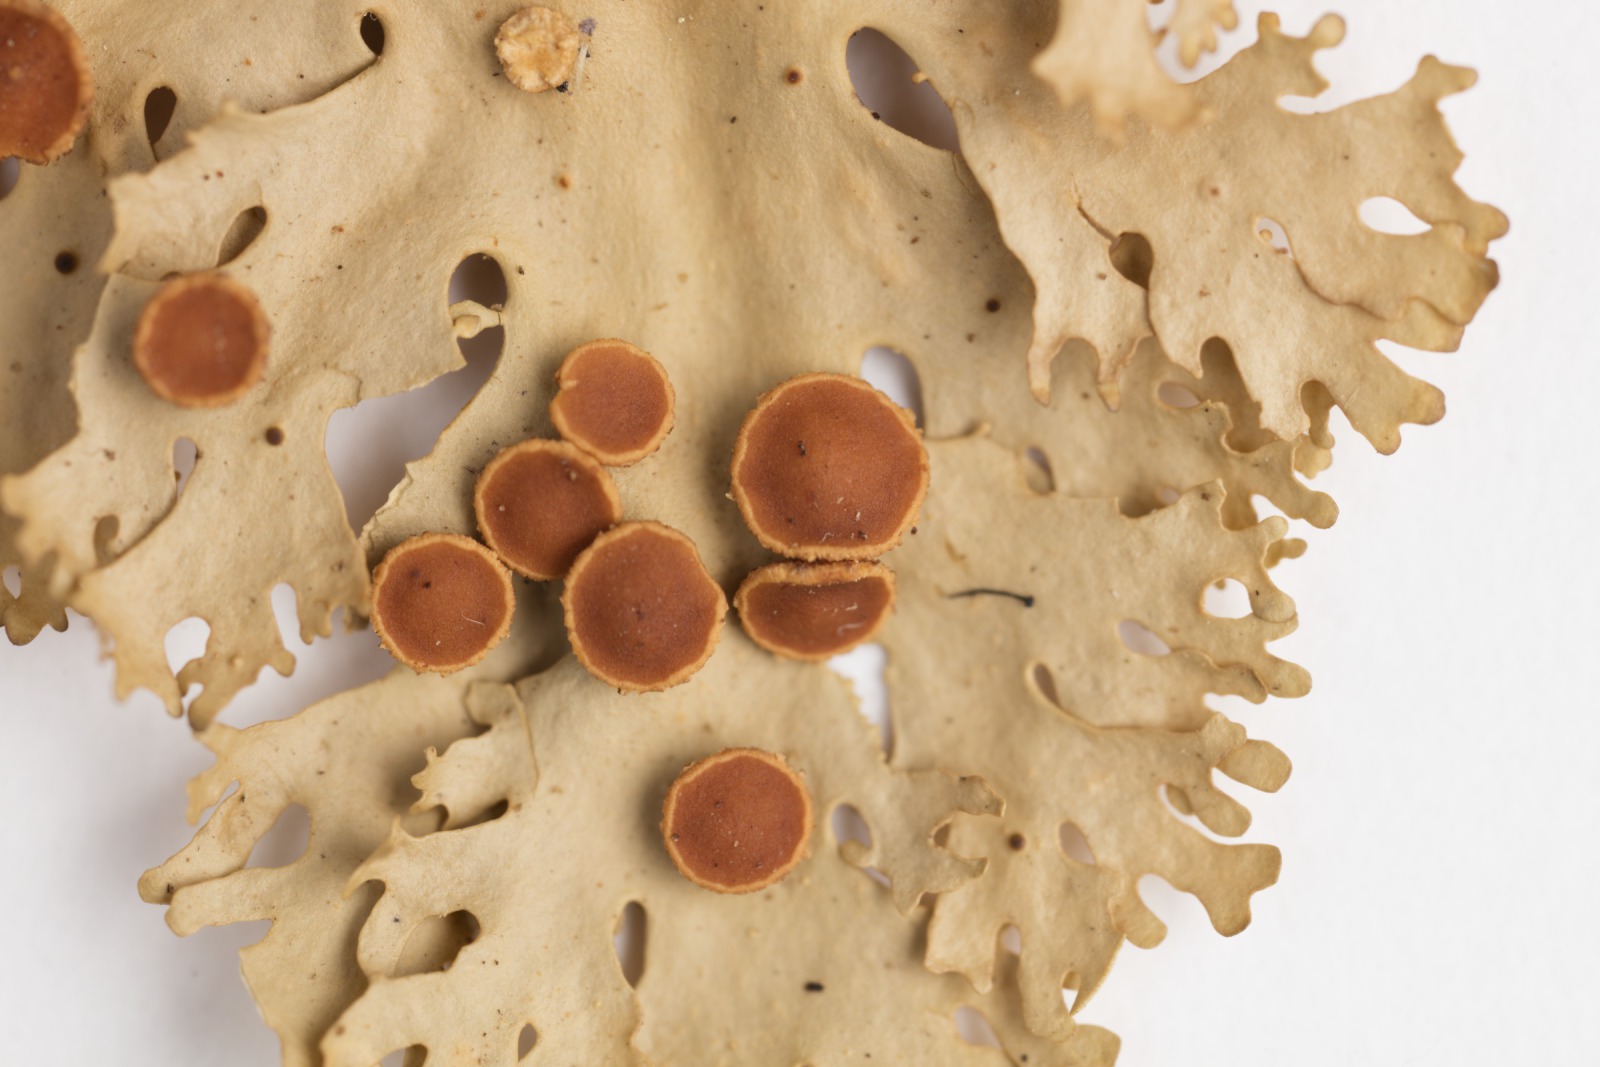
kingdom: Fungi
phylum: Ascomycota
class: Lecanoromycetes
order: Peltigerales
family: Lobariaceae
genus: Sticta
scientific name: Sticta filix
